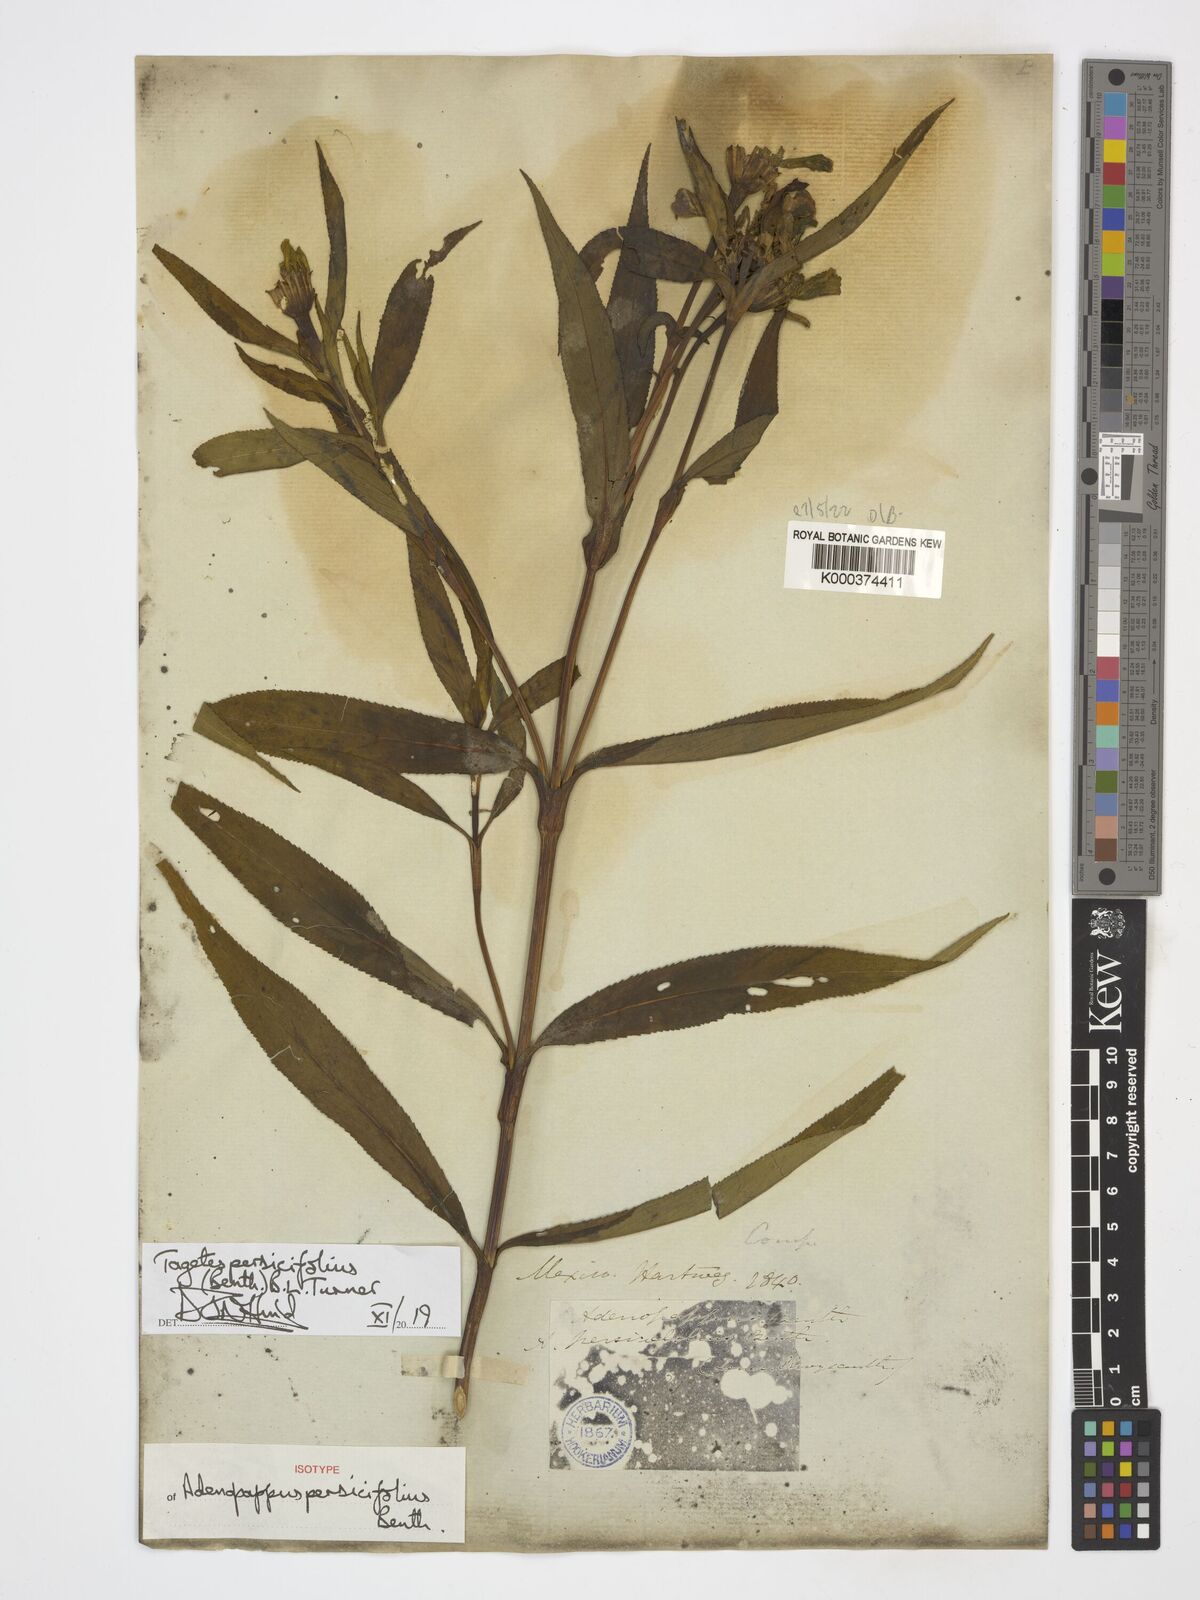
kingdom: Plantae
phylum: Tracheophyta
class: Magnoliopsida
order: Asterales
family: Asteraceae
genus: Tagetes
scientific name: Tagetes persicifolia
